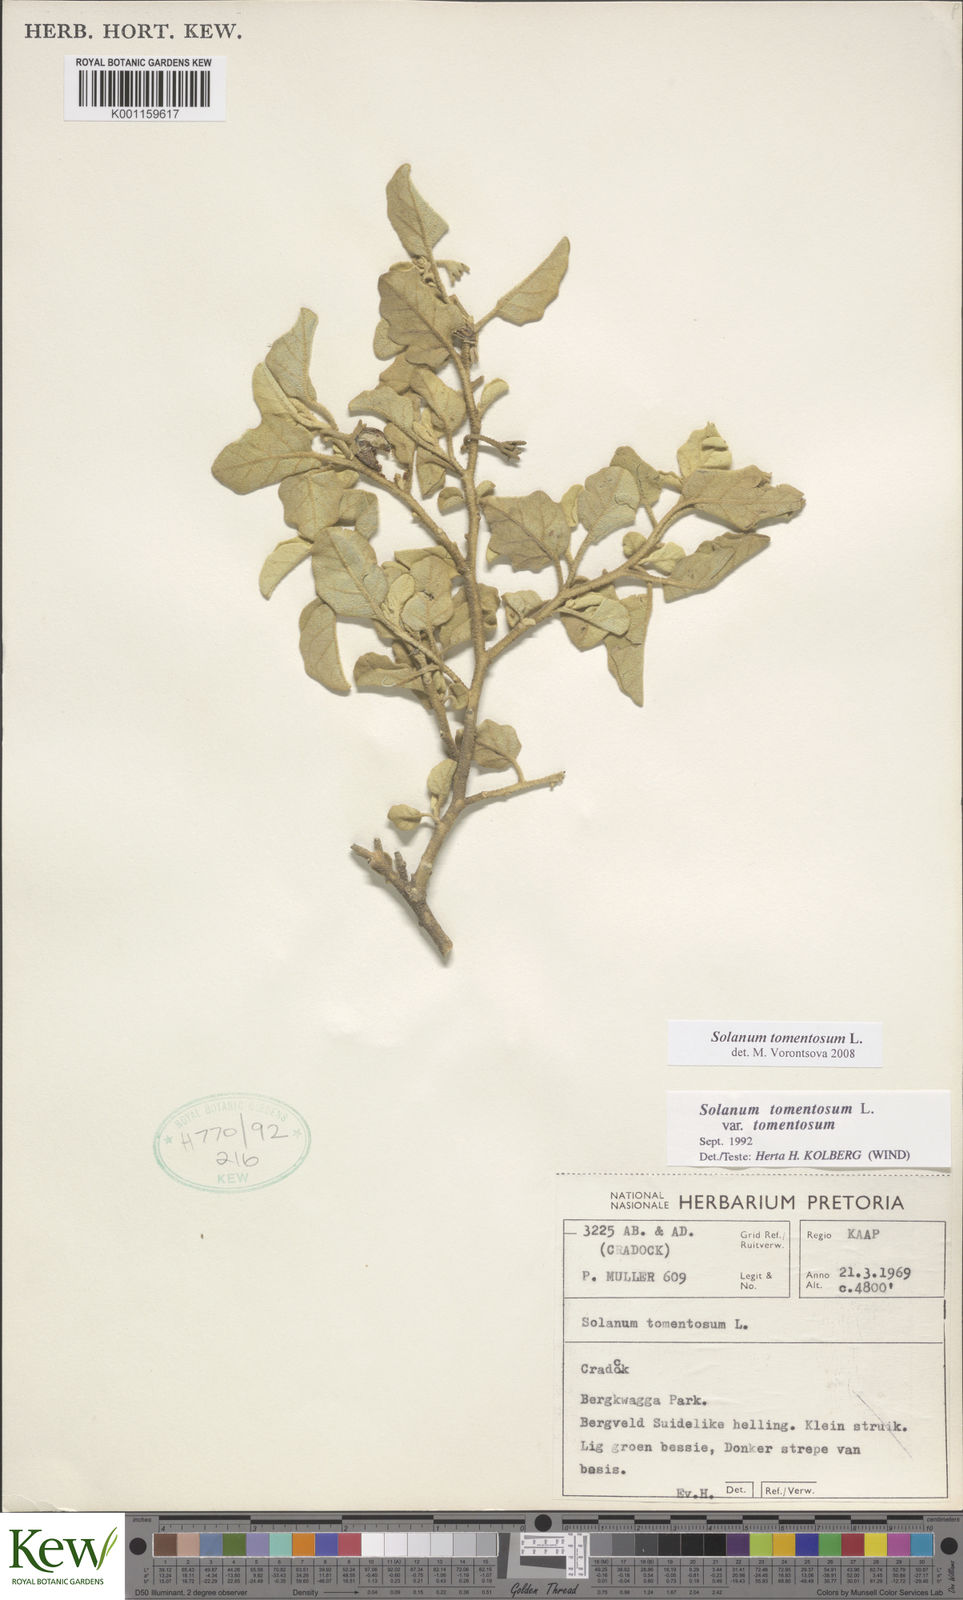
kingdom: Plantae
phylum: Tracheophyta
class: Magnoliopsida
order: Solanales
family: Solanaceae
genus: Solanum
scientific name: Solanum tomentosum
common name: Wild aubergine
